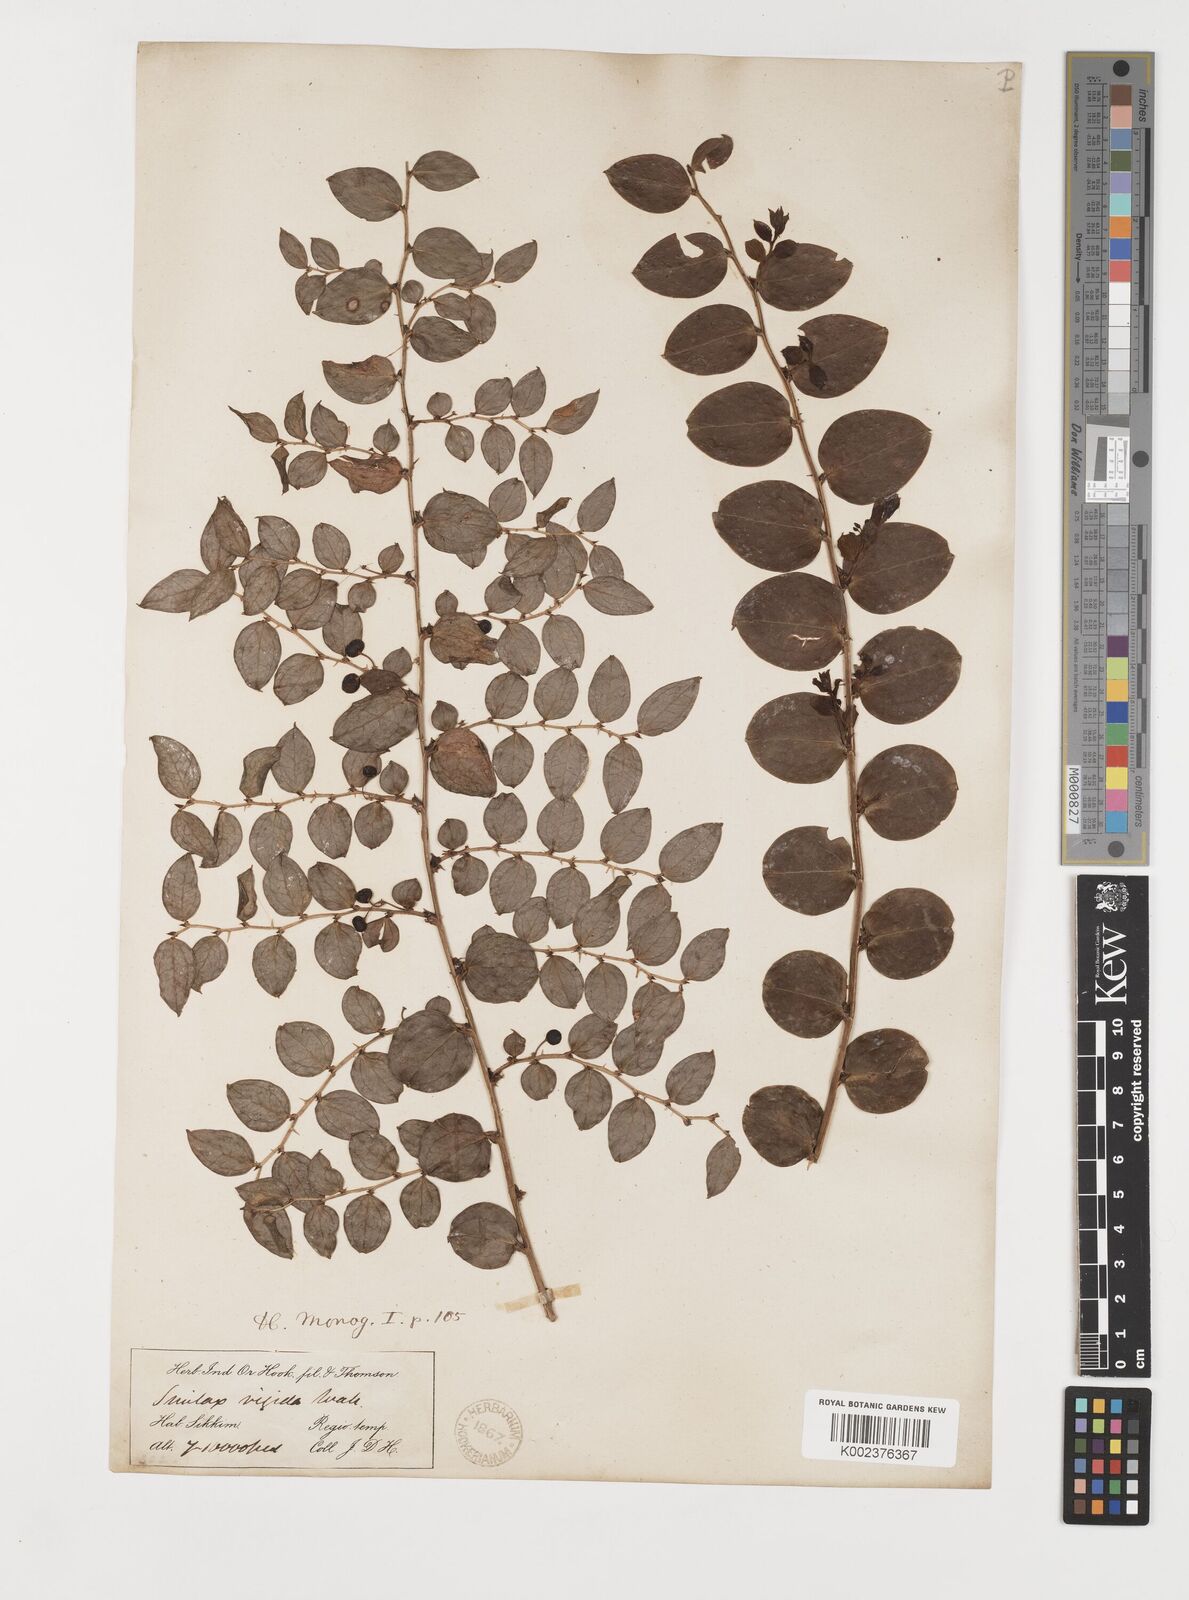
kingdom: Plantae
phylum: Tracheophyta
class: Liliopsida
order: Liliales
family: Smilacaceae
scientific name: Smilacaceae
